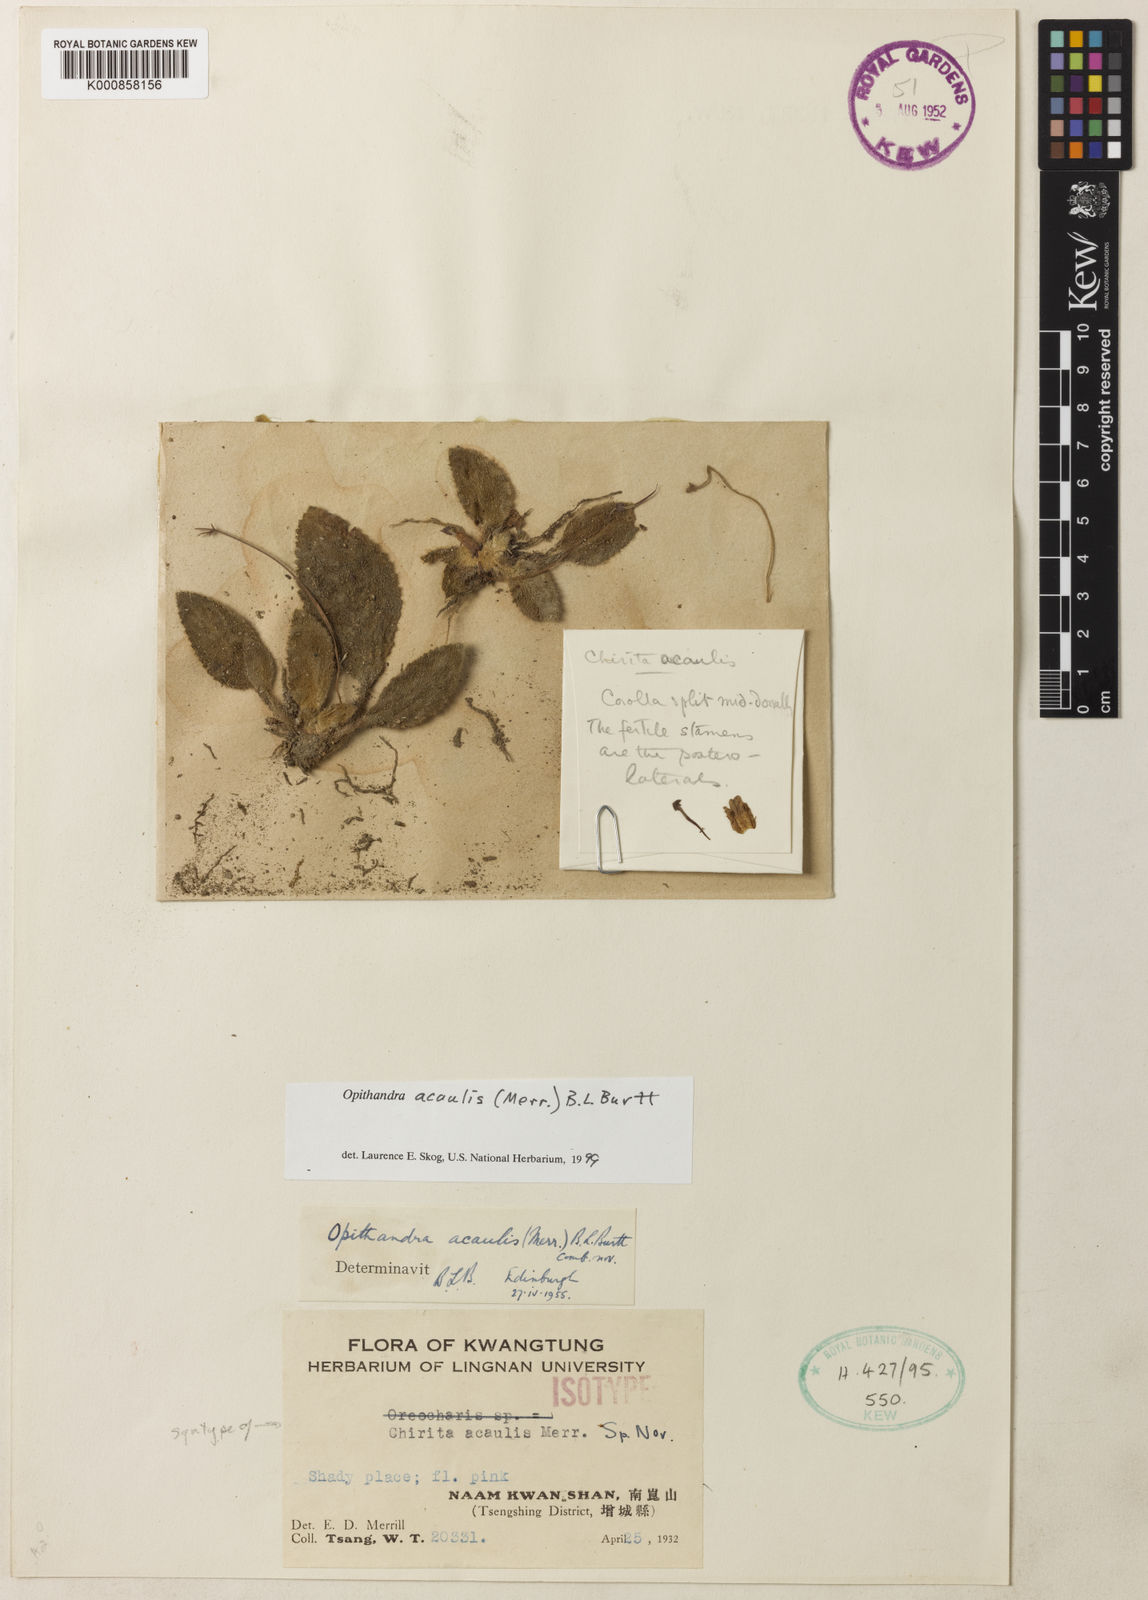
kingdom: Plantae
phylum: Tracheophyta
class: Magnoliopsida
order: Lamiales
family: Gesneriaceae
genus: Oreocharis
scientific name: Oreocharis acaulis
